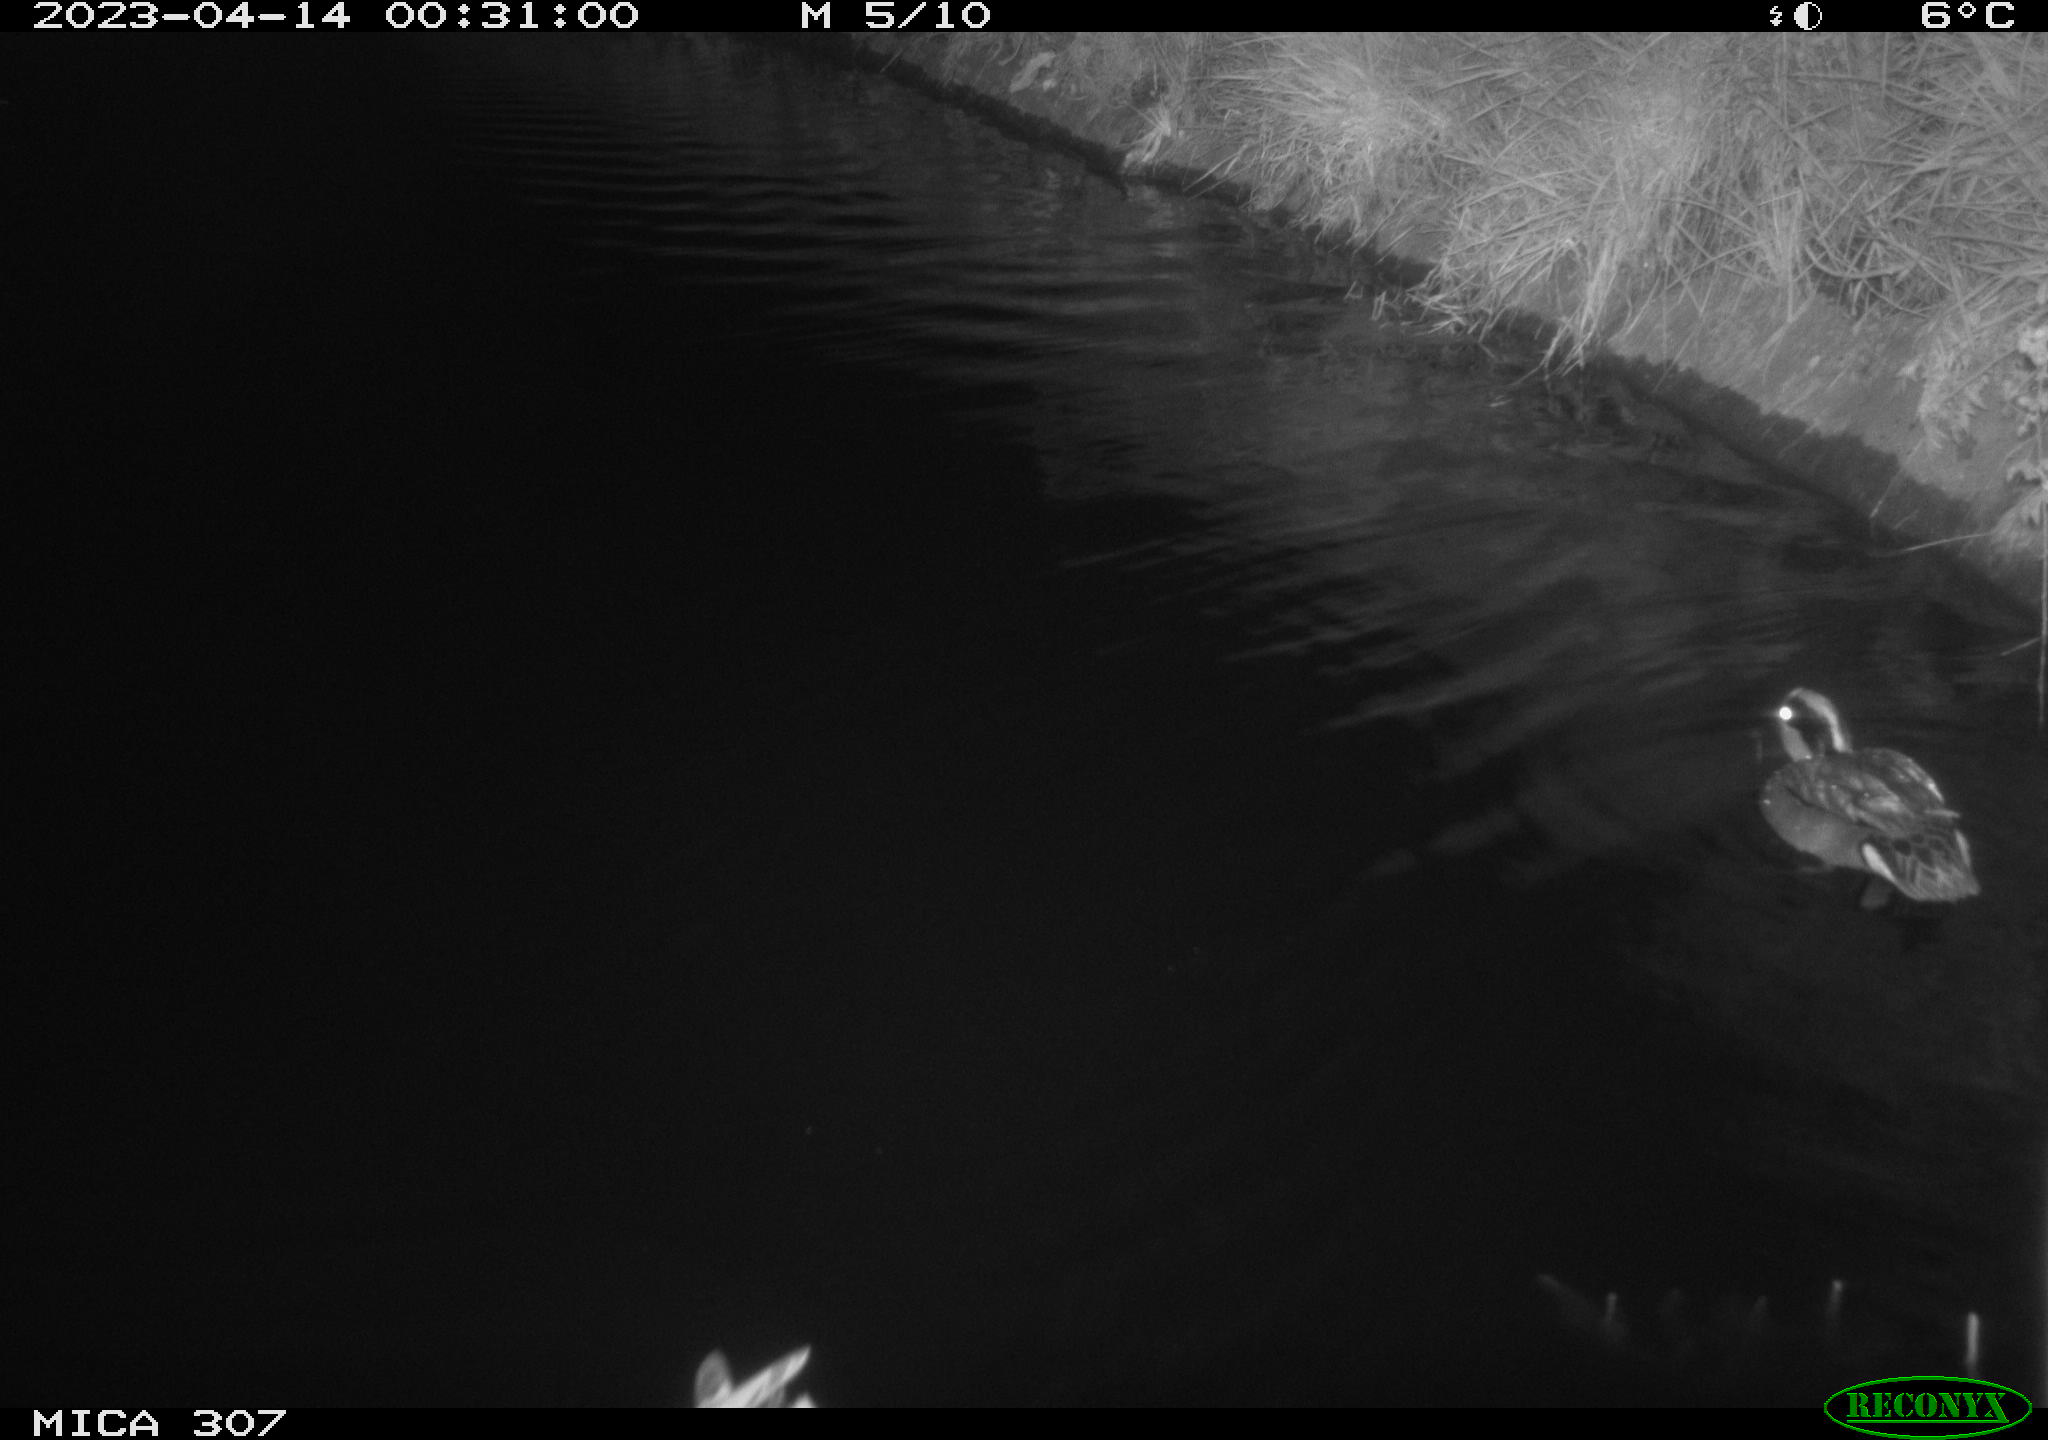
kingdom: Animalia
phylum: Chordata
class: Aves
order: Anseriformes
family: Anatidae
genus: Anas
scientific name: Anas
